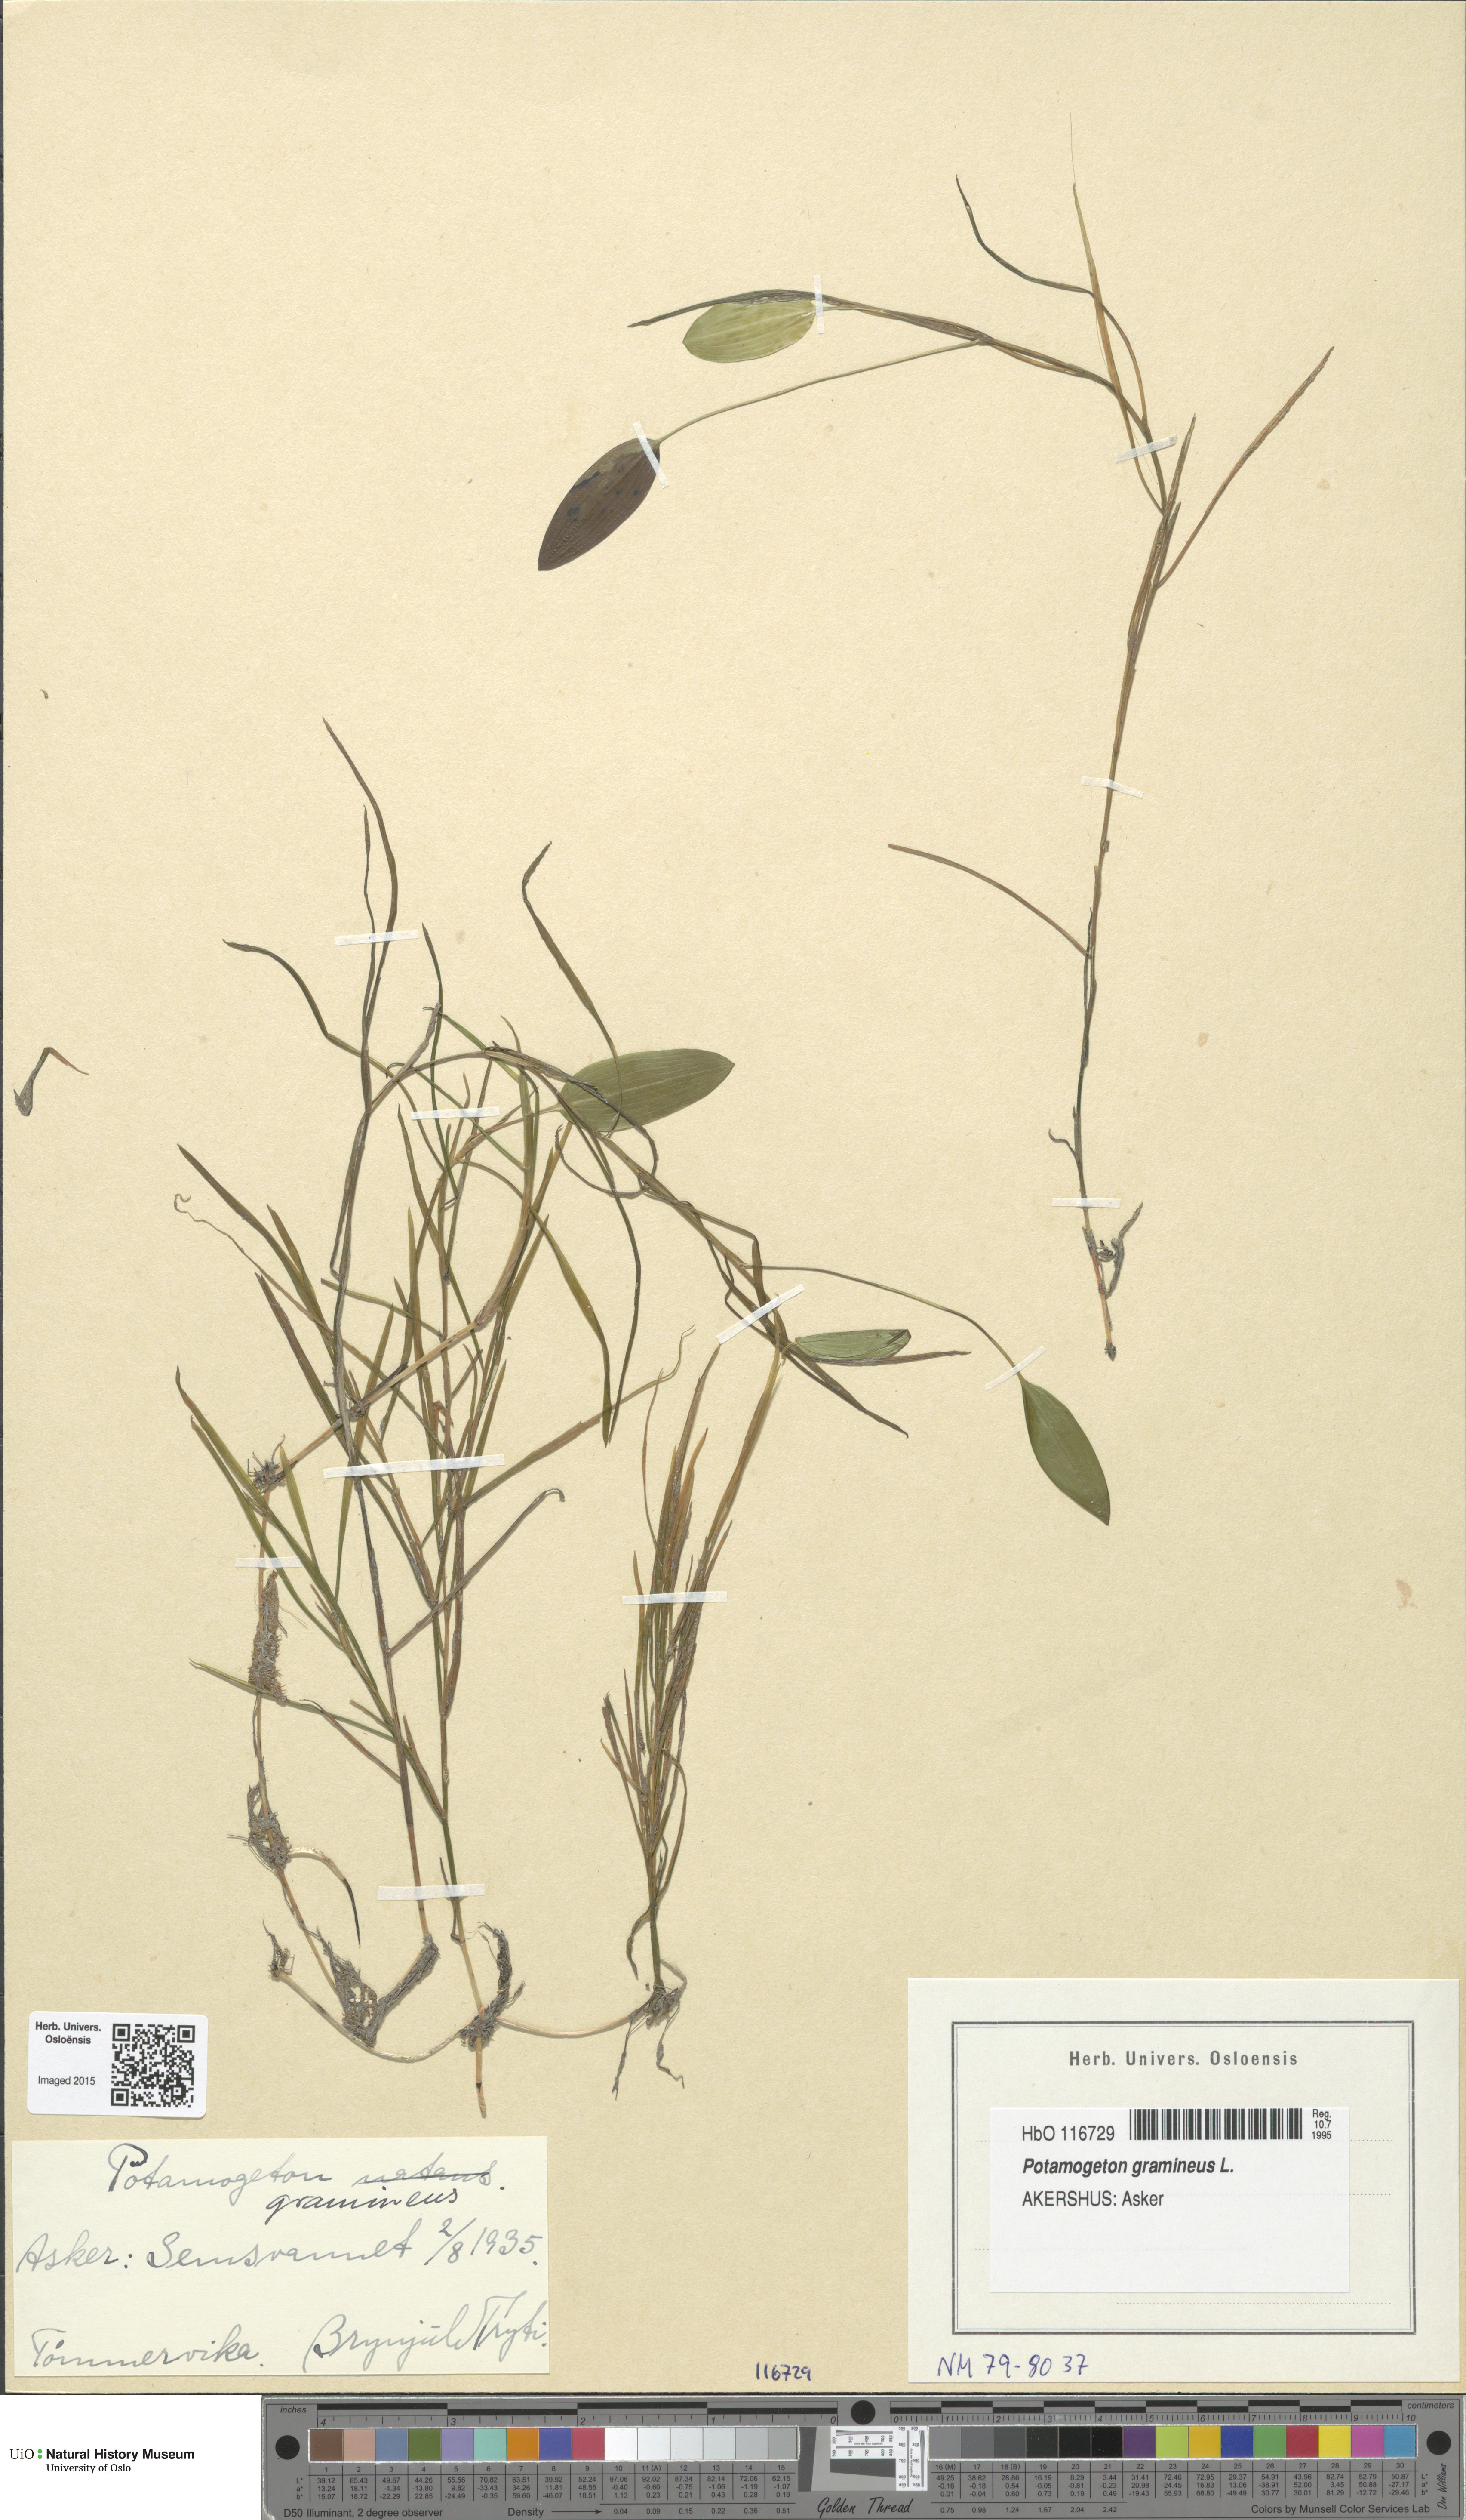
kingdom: Plantae
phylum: Tracheophyta
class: Liliopsida
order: Alismatales
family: Potamogetonaceae
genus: Potamogeton
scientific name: Potamogeton sparganiifolius
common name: Burreed-like pondweed
